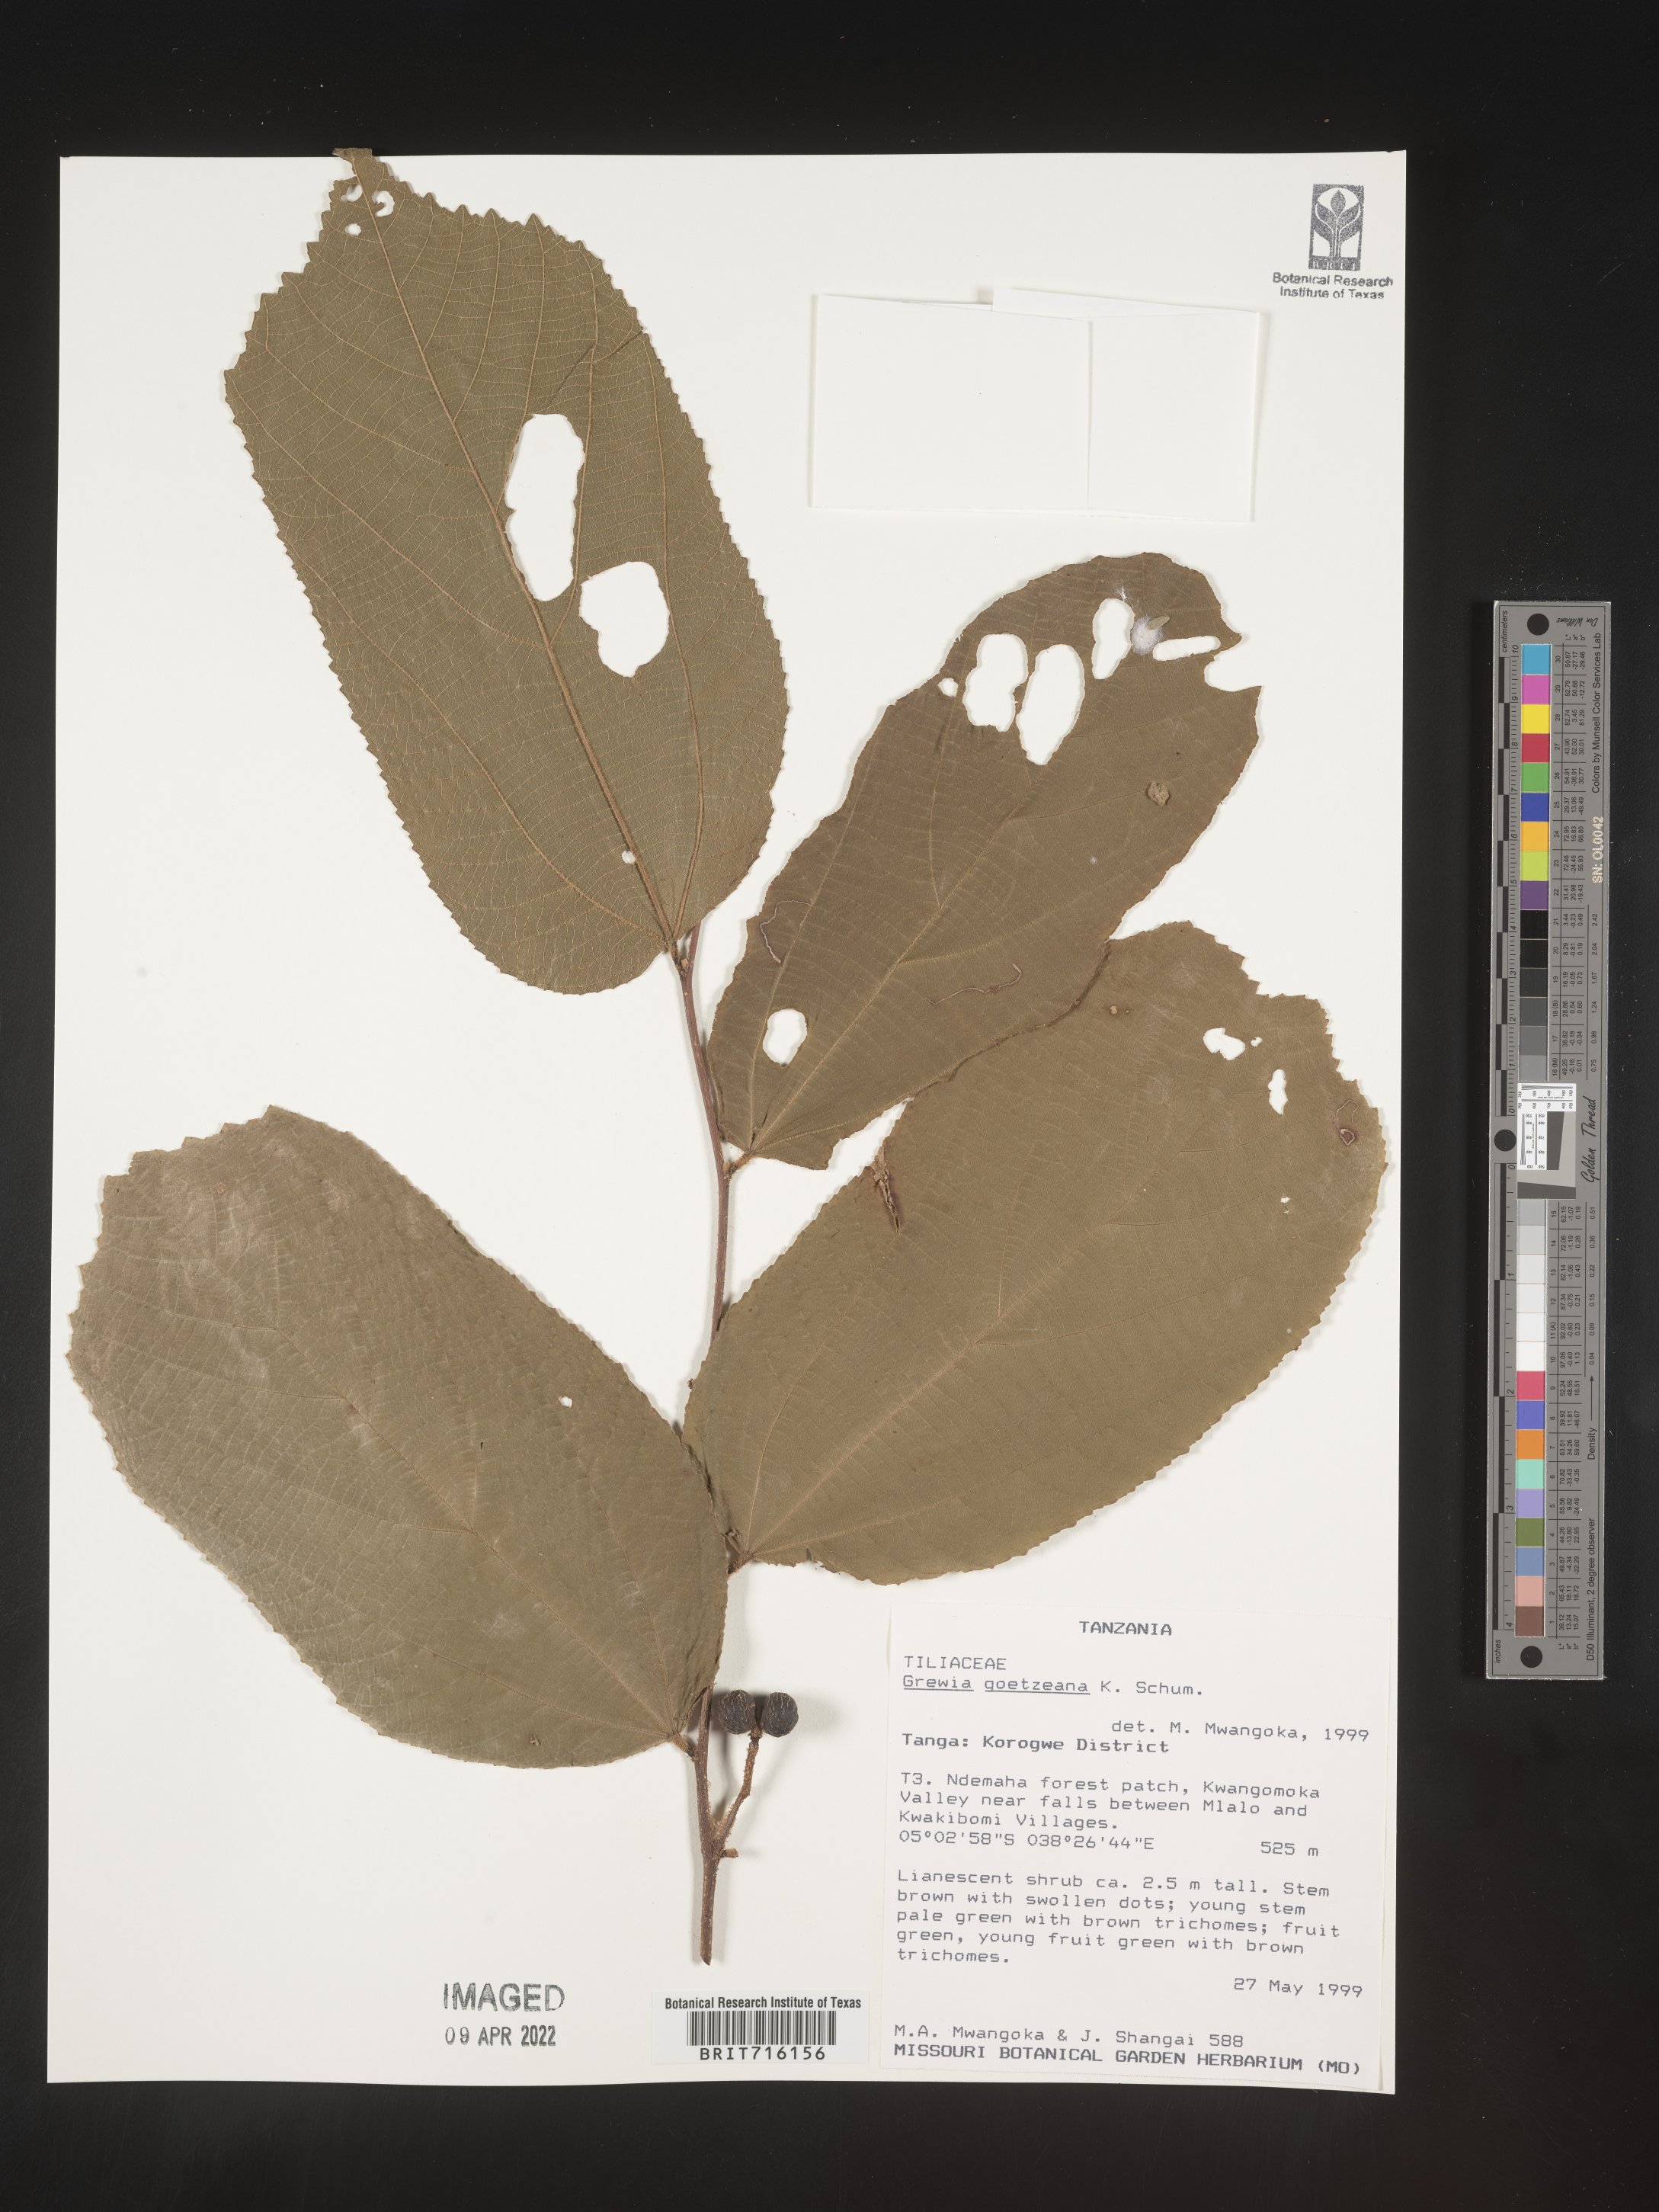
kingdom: Plantae
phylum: Tracheophyta
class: Magnoliopsida
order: Malvales
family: Malvaceae
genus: Grewia
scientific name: Grewia
